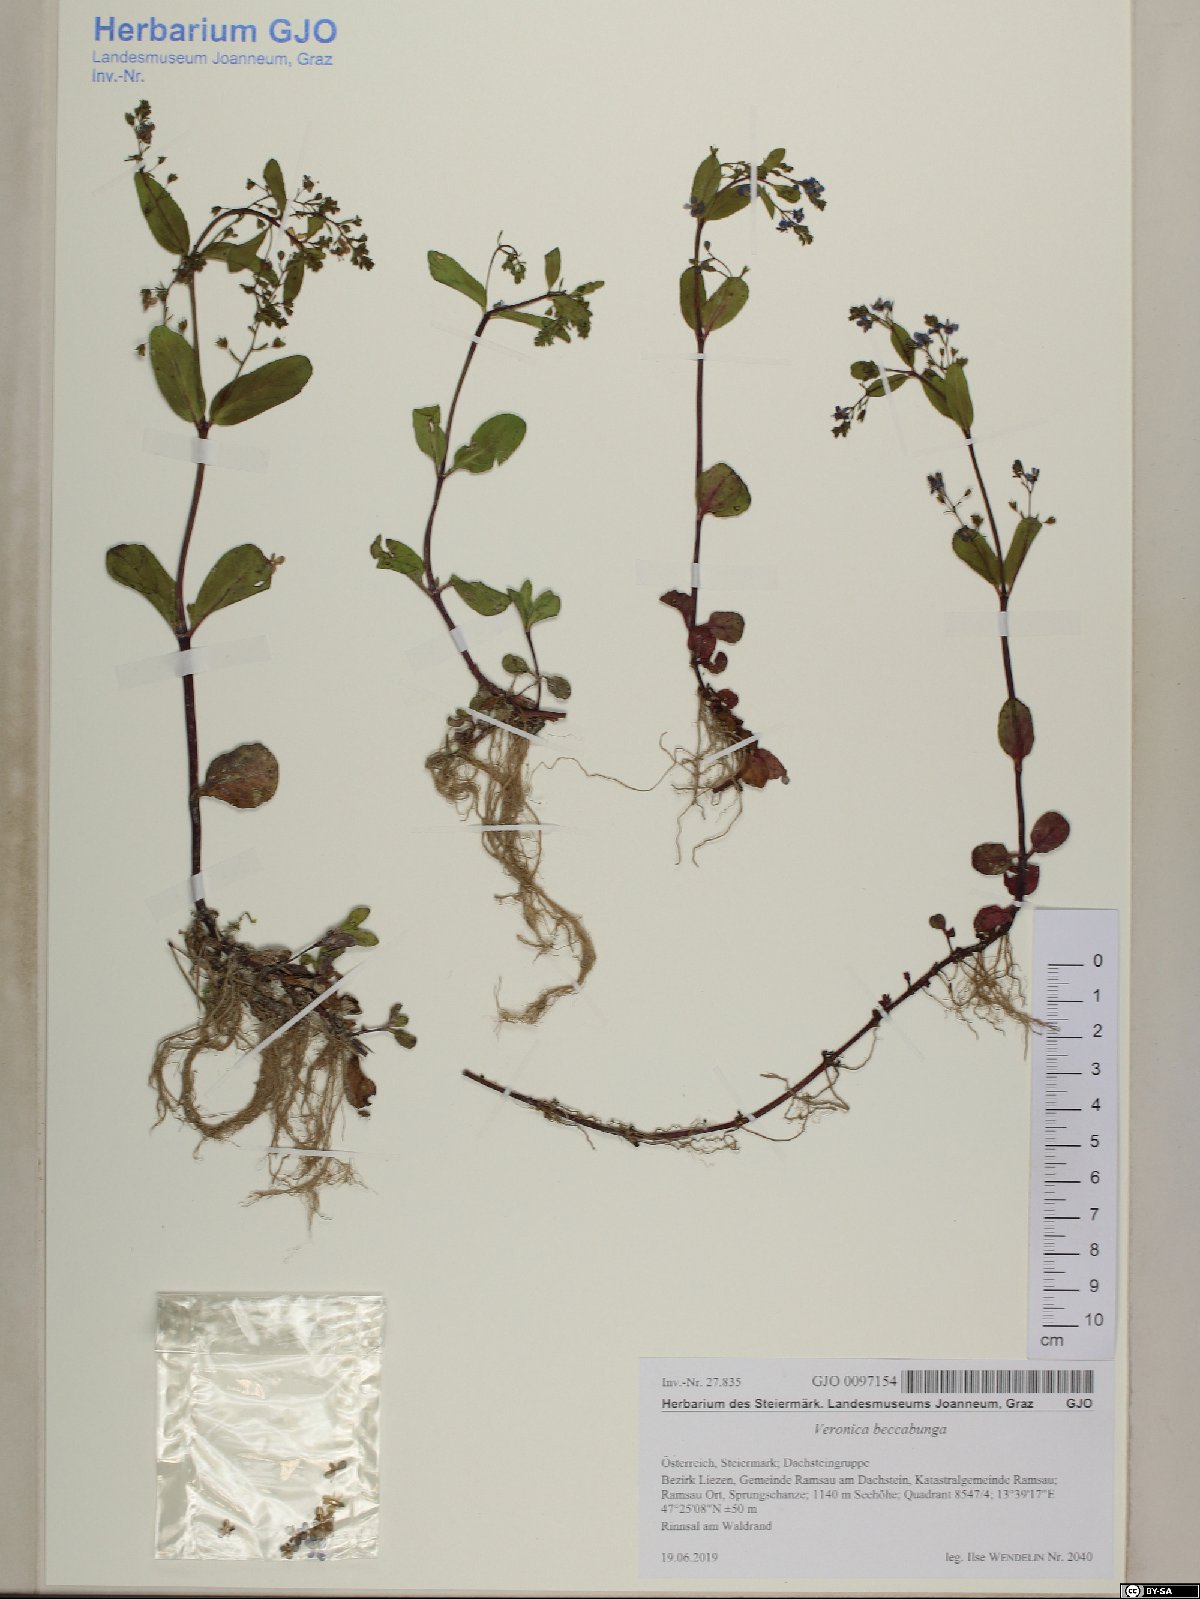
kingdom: Plantae
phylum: Tracheophyta
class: Magnoliopsida
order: Lamiales
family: Plantaginaceae
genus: Veronica
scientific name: Veronica beccabunga
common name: Brooklime
